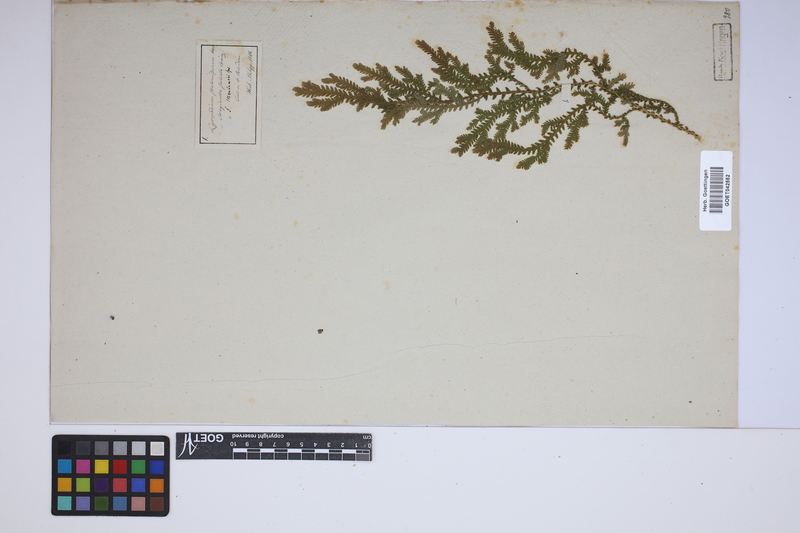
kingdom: Plantae
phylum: Tracheophyta
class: Lycopodiopsida
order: Selaginellales
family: Selaginellaceae
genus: Selaginella
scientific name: Selaginella martensii
